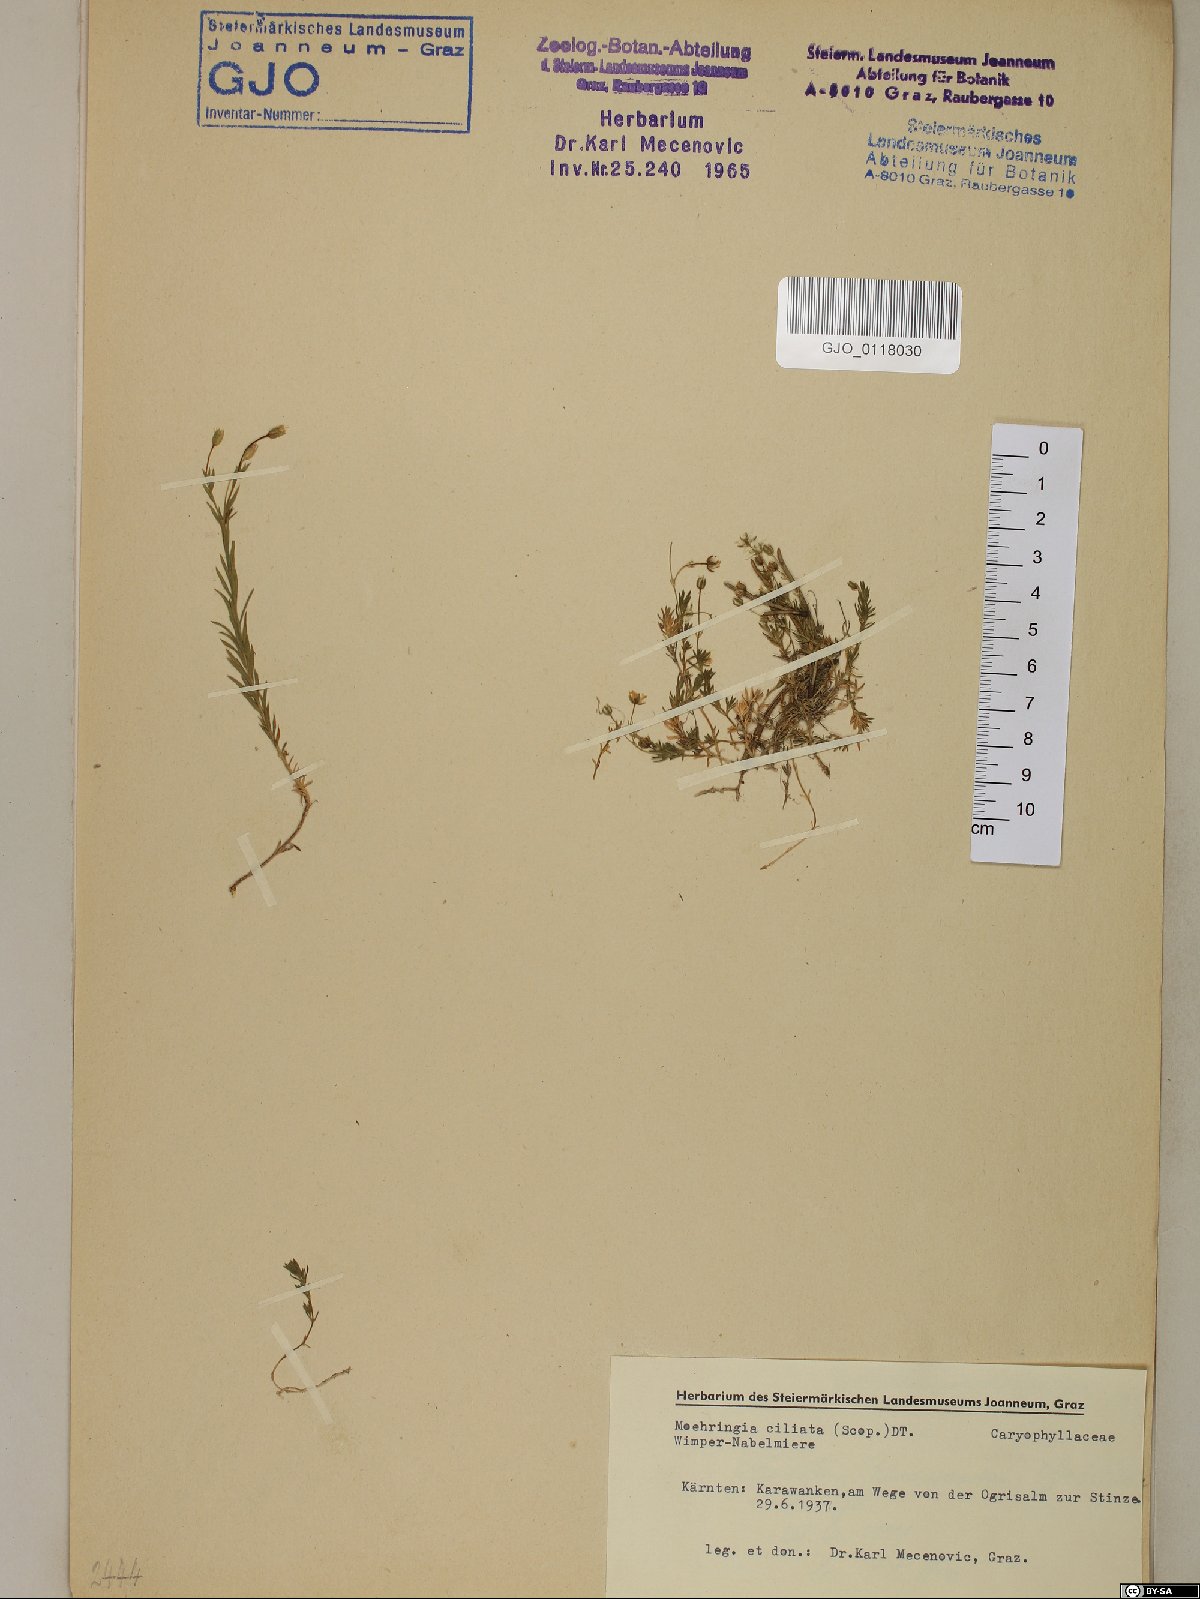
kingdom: Plantae
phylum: Tracheophyta
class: Magnoliopsida
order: Caryophyllales
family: Caryophyllaceae
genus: Moehringia
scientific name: Moehringia ciliata
